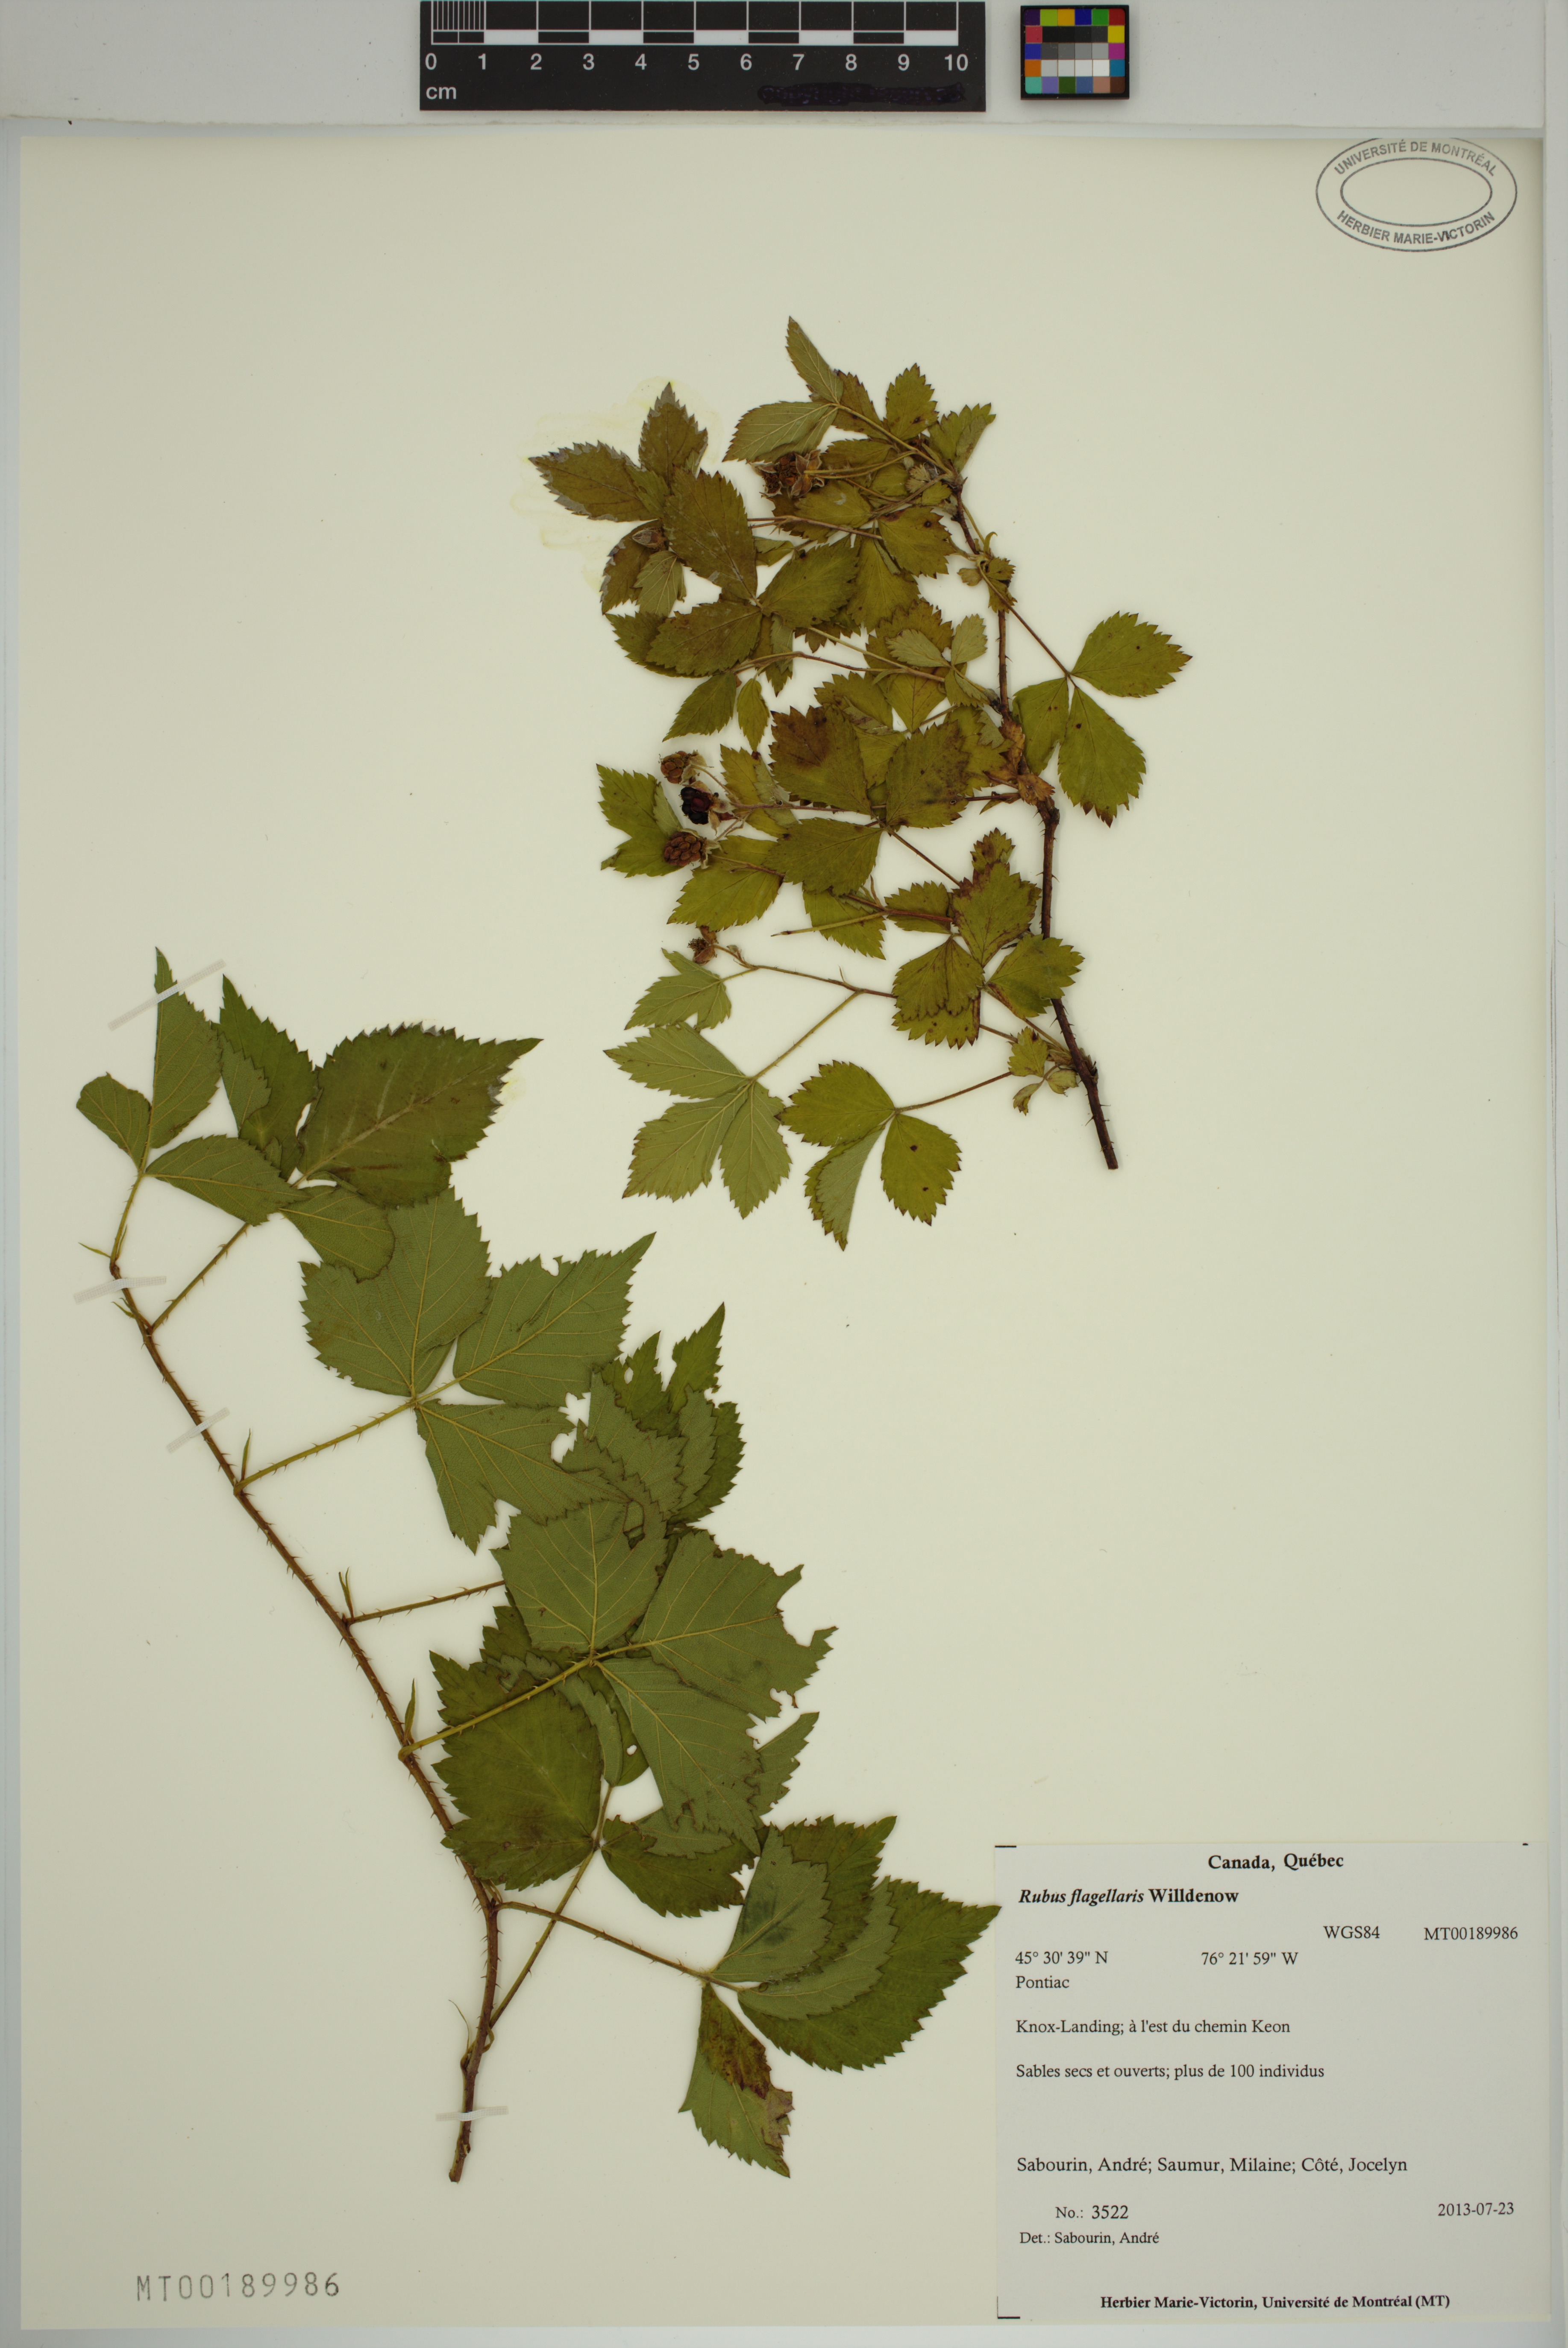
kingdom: Plantae
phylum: Tracheophyta
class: Magnoliopsida
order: Rosales
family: Rosaceae
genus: Rubus
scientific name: Rubus flagellaris
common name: American dewberry
